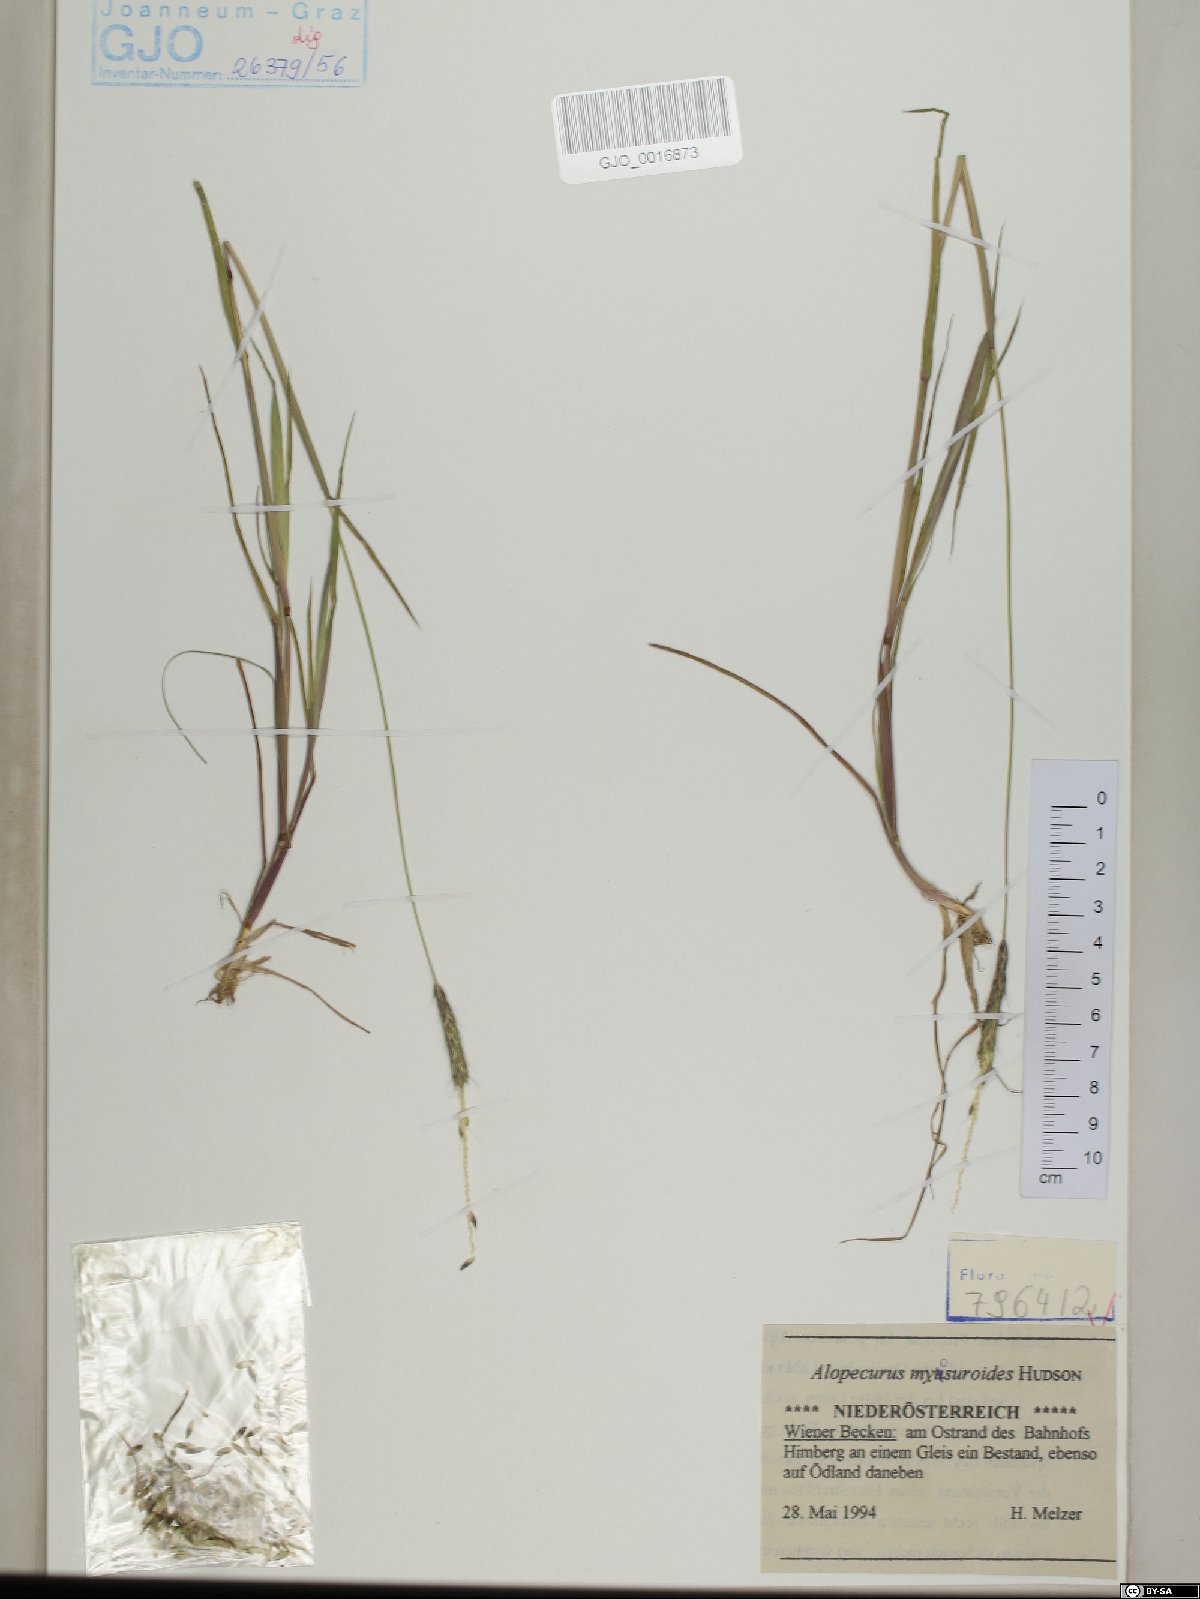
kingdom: Plantae
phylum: Tracheophyta
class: Liliopsida
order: Poales
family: Poaceae
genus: Alopecurus
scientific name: Alopecurus myosuroides
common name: Black-grass
